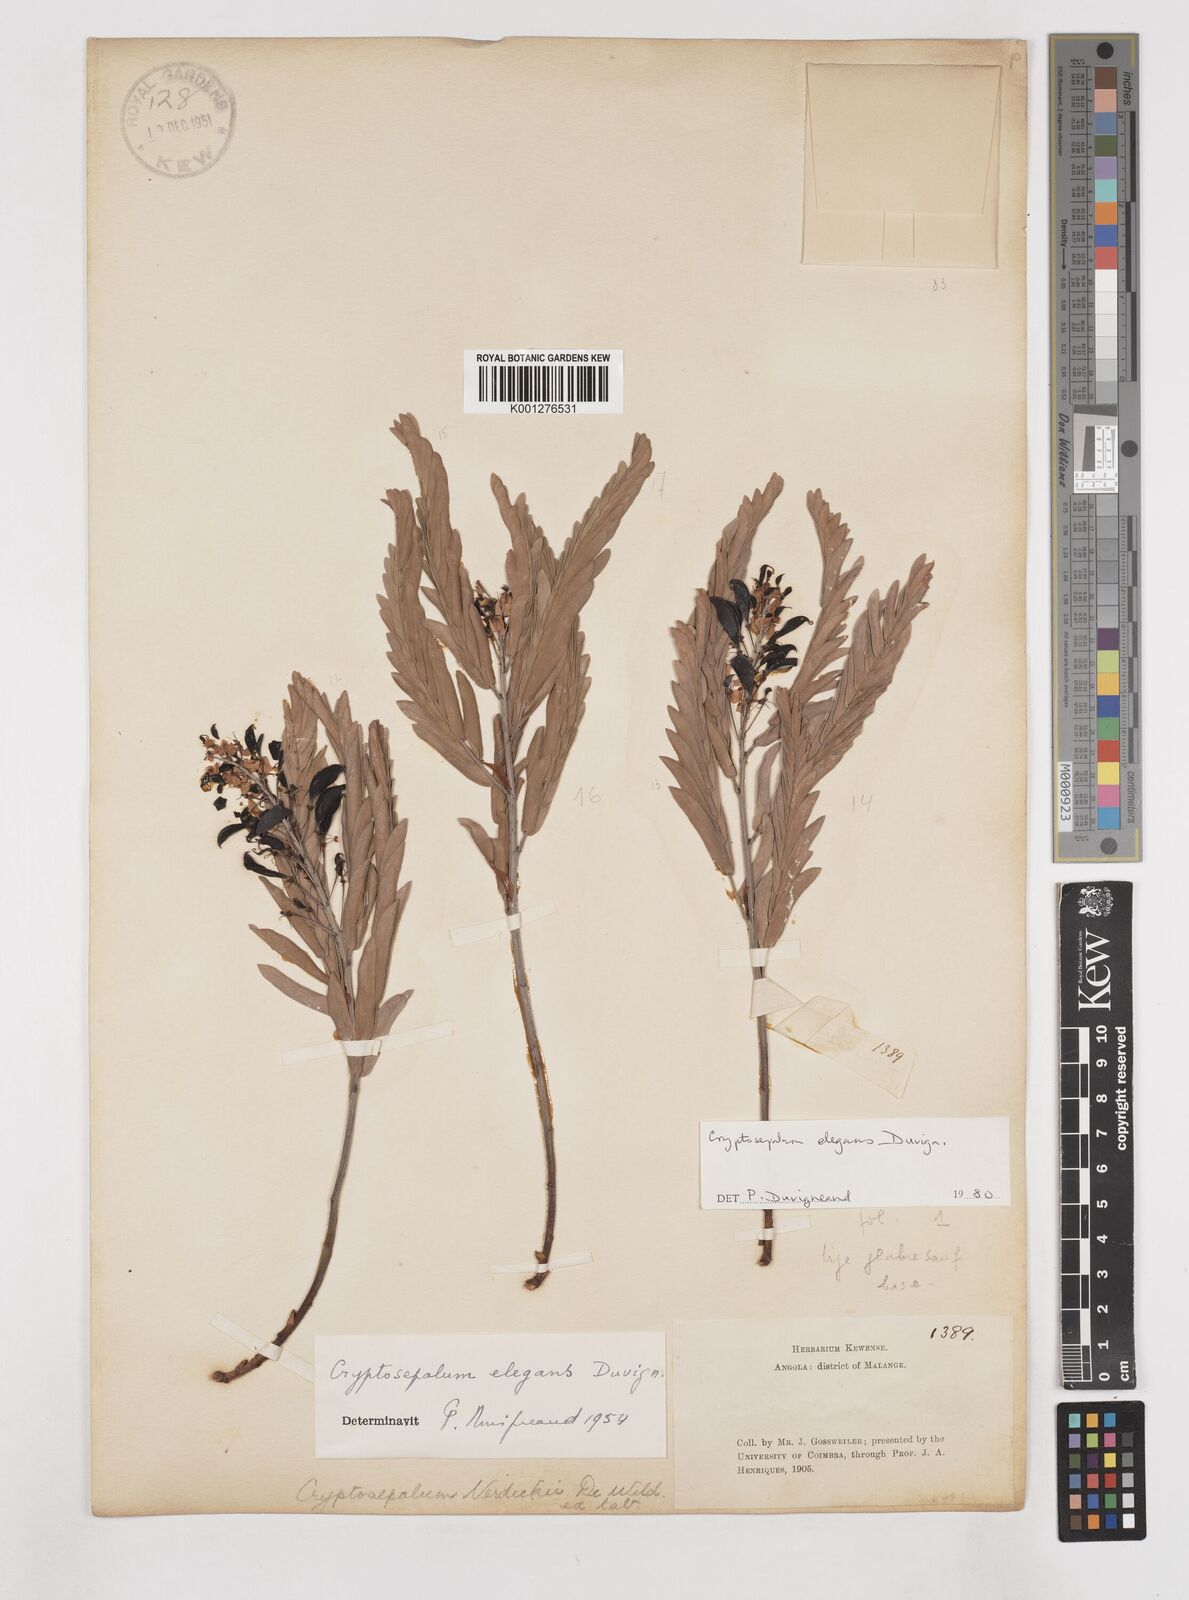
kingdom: Plantae
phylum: Tracheophyta
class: Magnoliopsida
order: Fabales
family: Fabaceae
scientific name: Fabaceae
